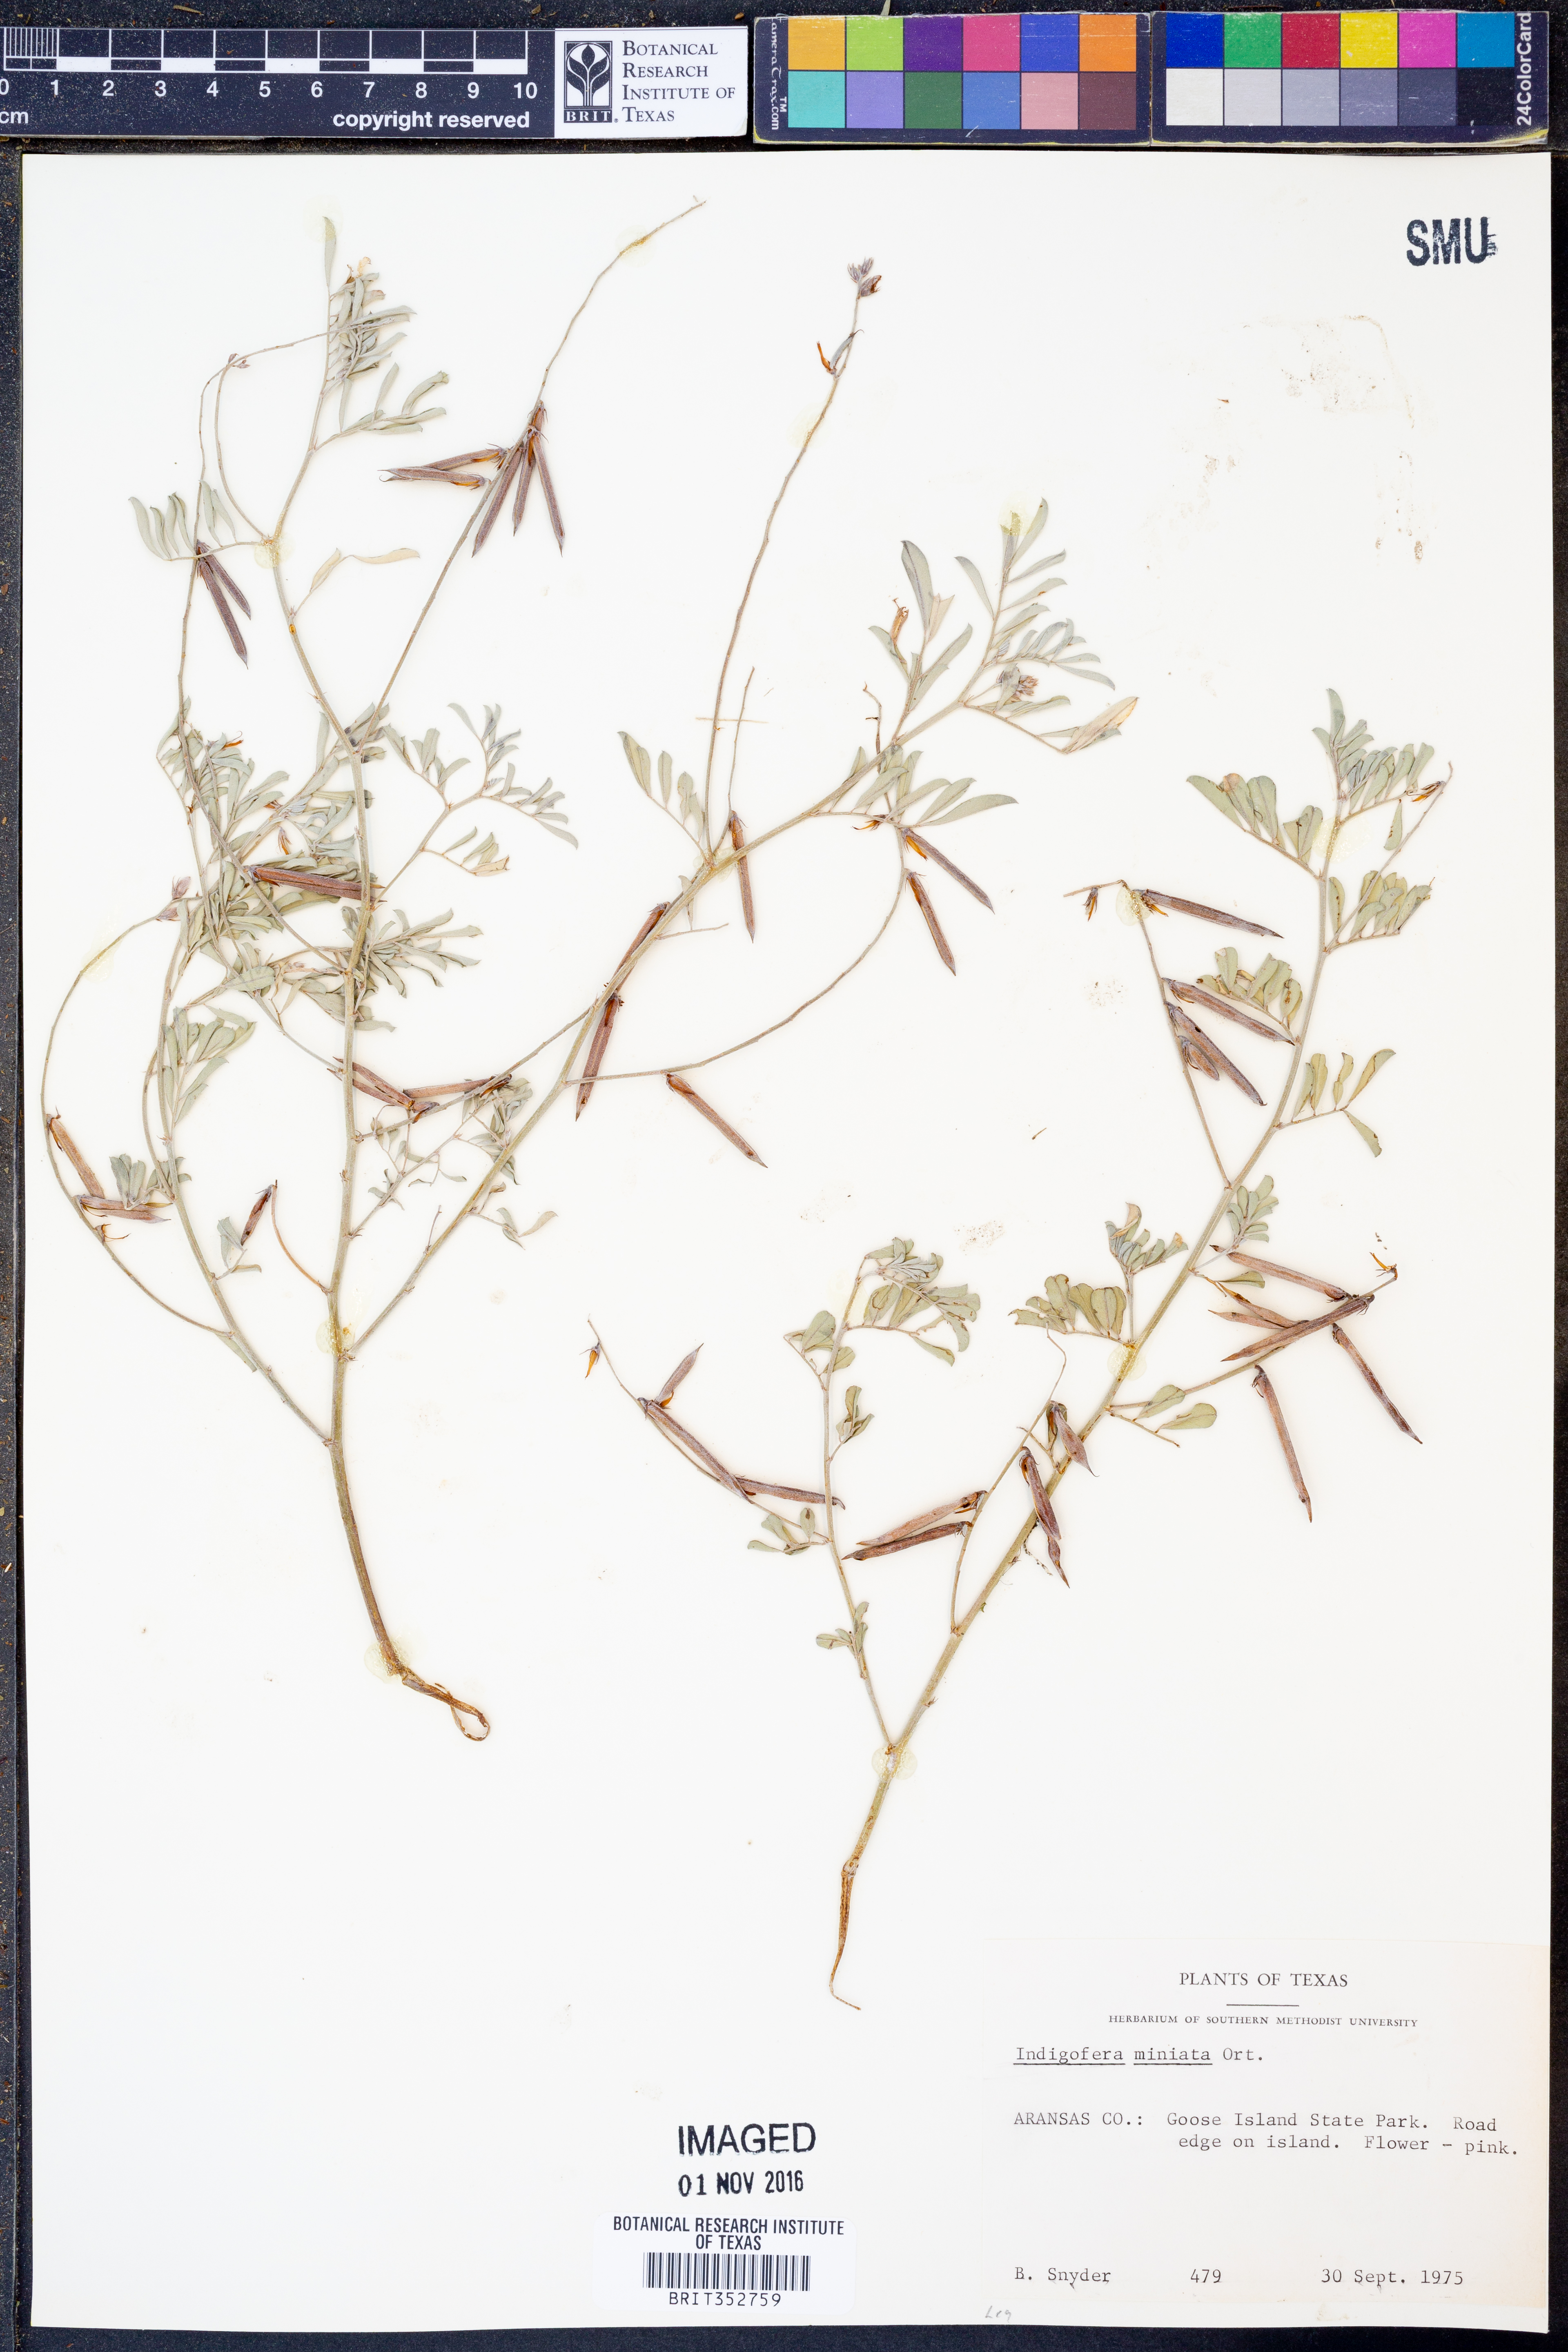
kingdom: Plantae
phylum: Tracheophyta
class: Magnoliopsida
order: Fabales
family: Fabaceae
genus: Indigofera
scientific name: Indigofera miniata
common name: Coast indigo
